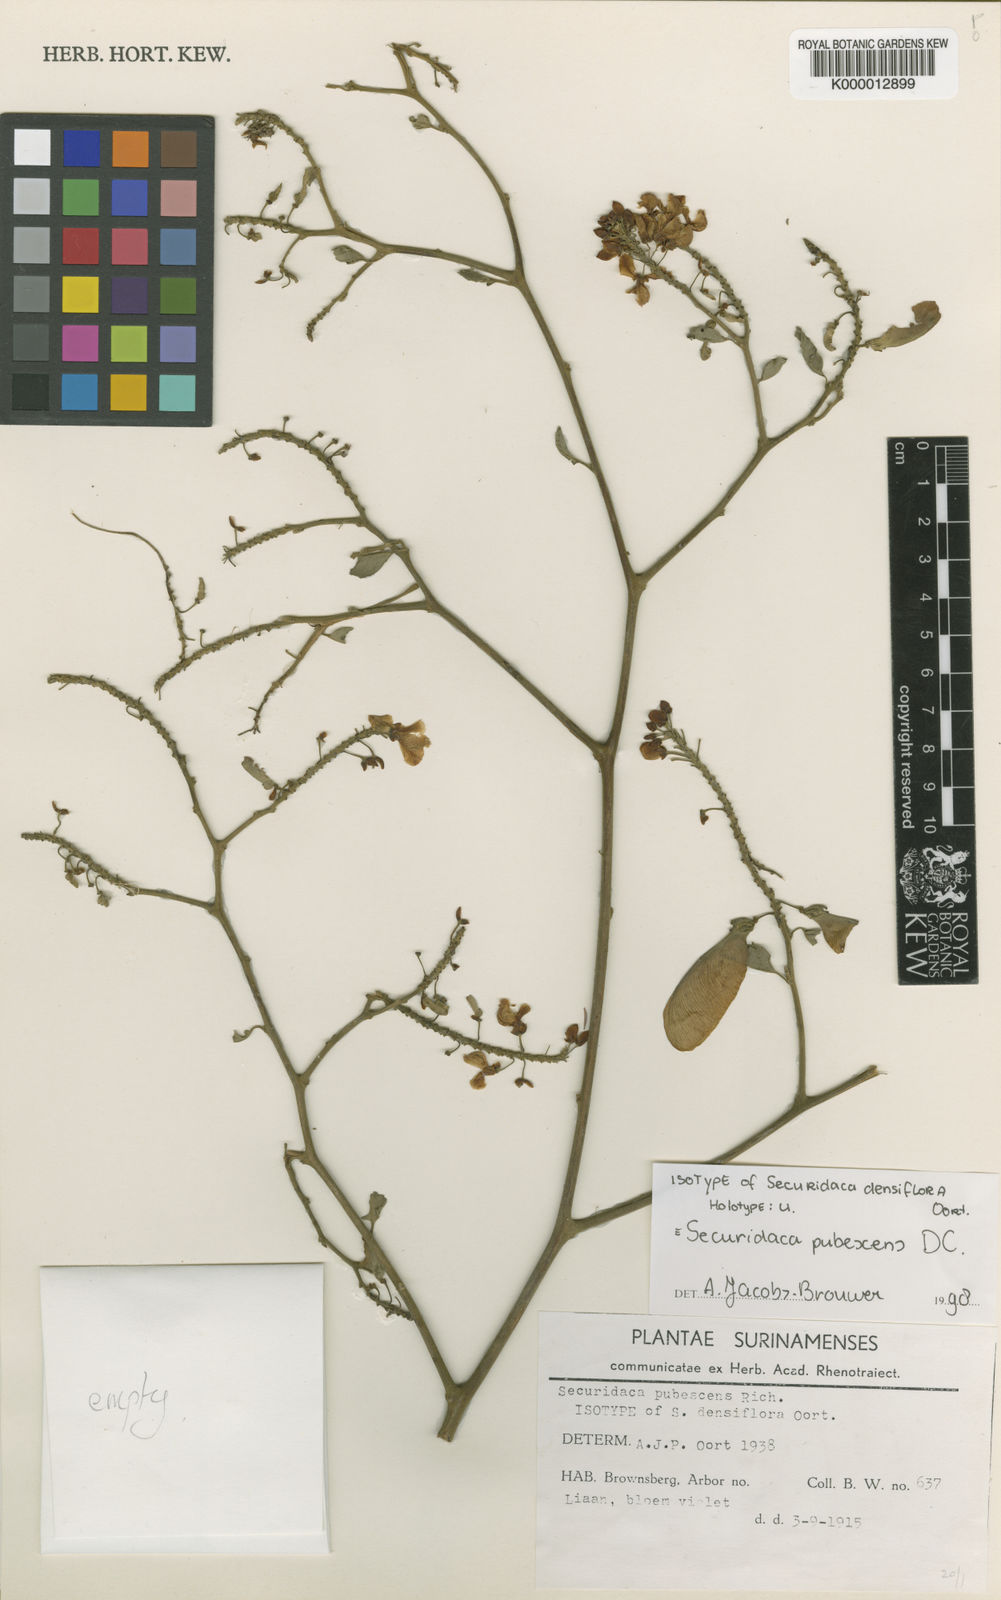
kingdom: Plantae
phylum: Tracheophyta
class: Magnoliopsida
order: Fabales
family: Polygalaceae
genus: Securidaca
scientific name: Securidaca pubescens
